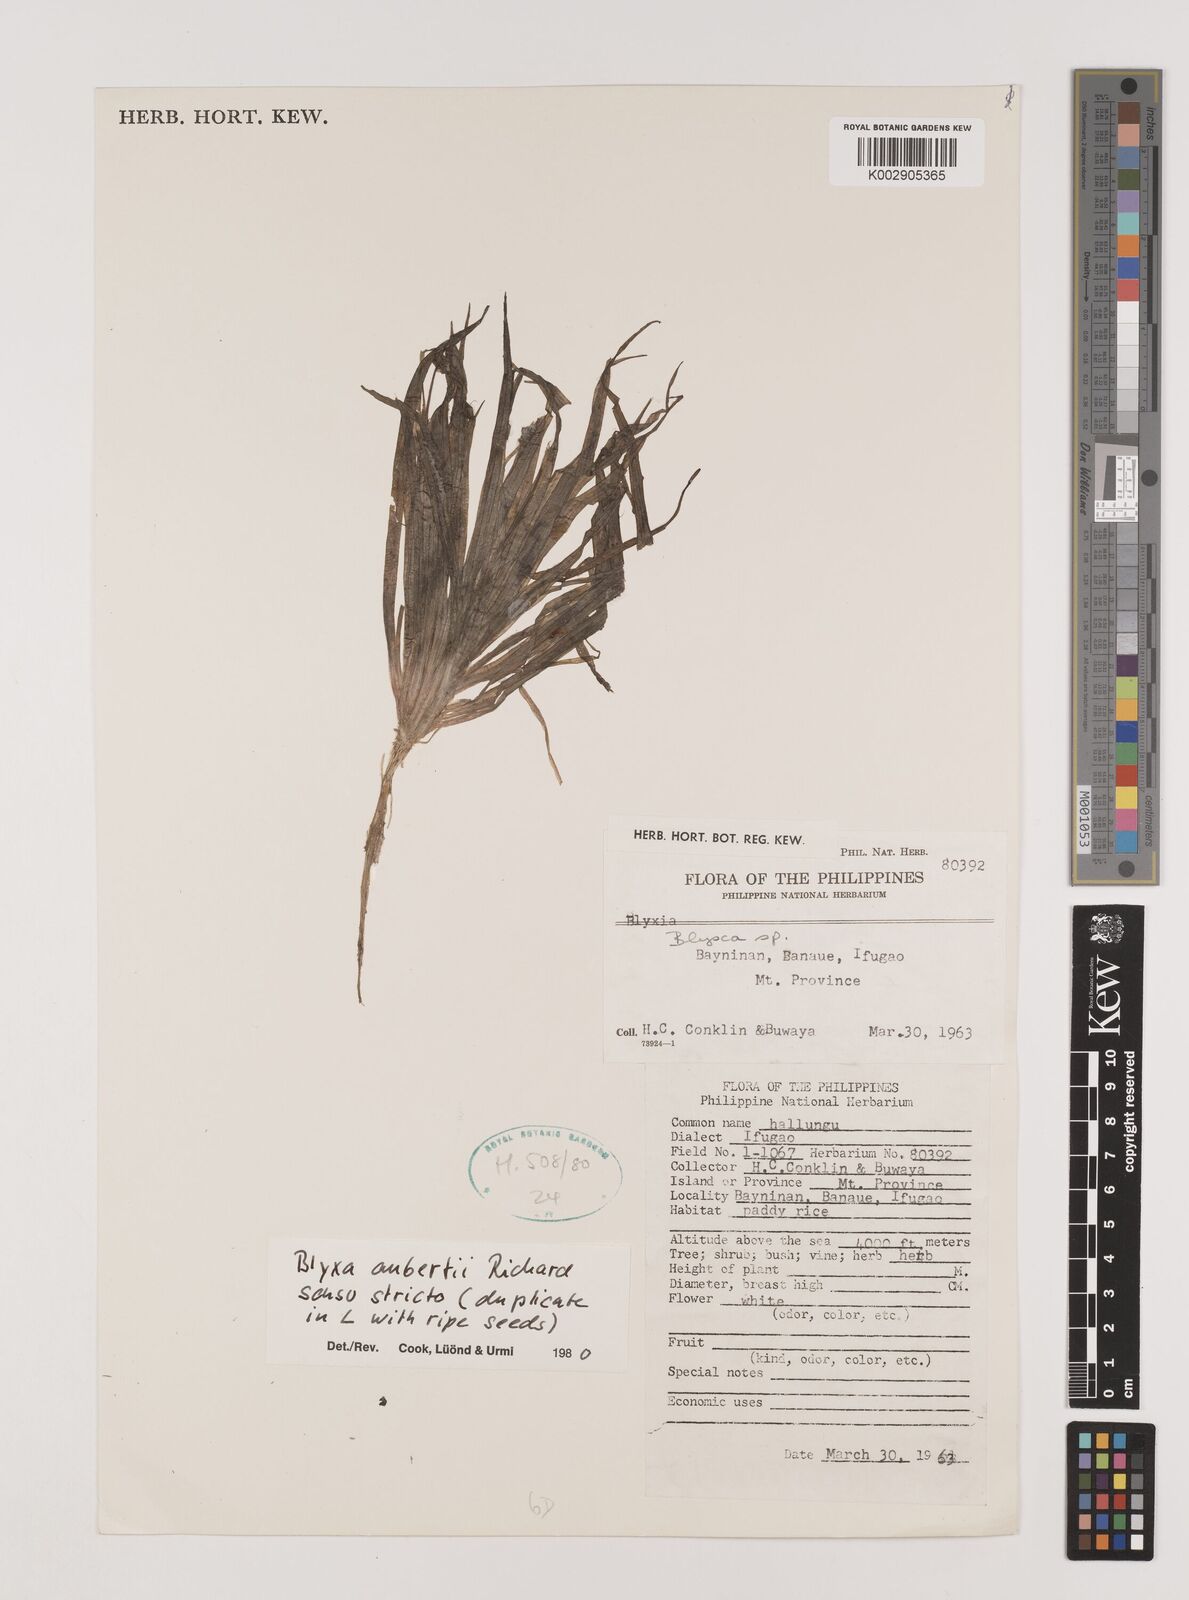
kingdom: Plantae
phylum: Tracheophyta
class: Liliopsida
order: Alismatales
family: Hydrocharitaceae
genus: Blyxa
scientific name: Blyxa aubertii
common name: Roundfruit blyxa
